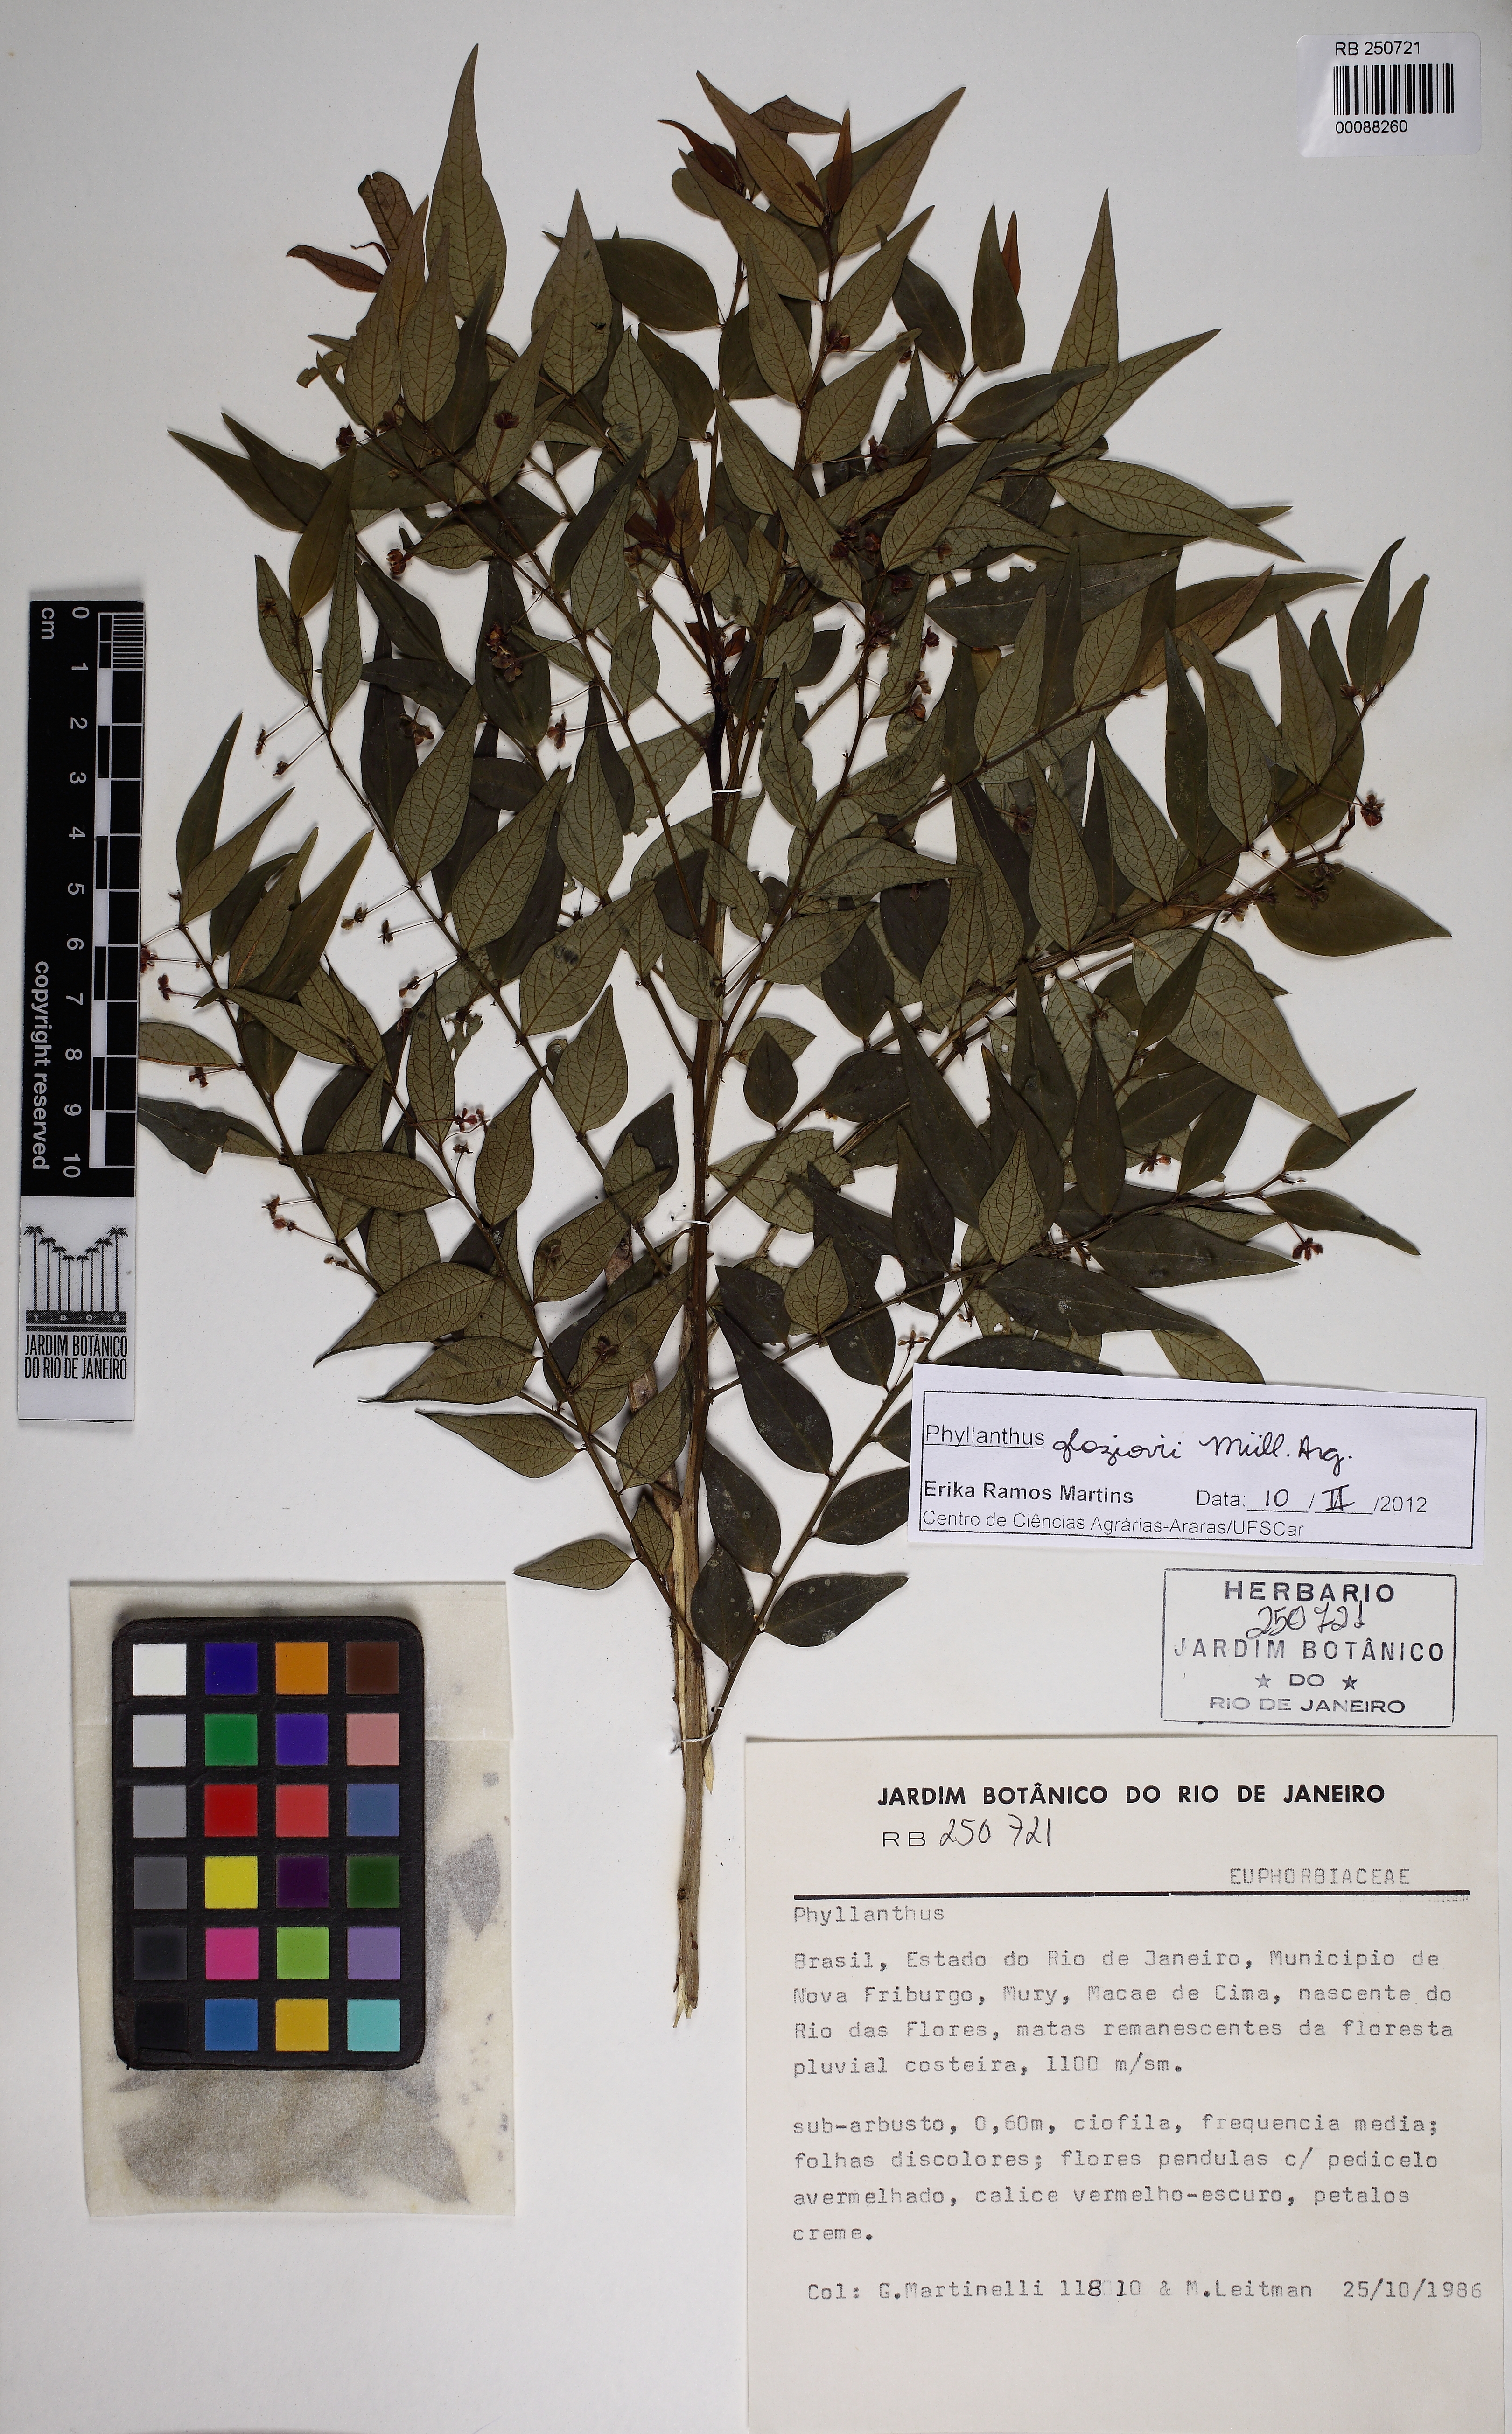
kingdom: Plantae
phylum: Tracheophyta
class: Magnoliopsida
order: Malpighiales
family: Phyllanthaceae
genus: Phyllanthus
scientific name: Phyllanthus glaziovii
